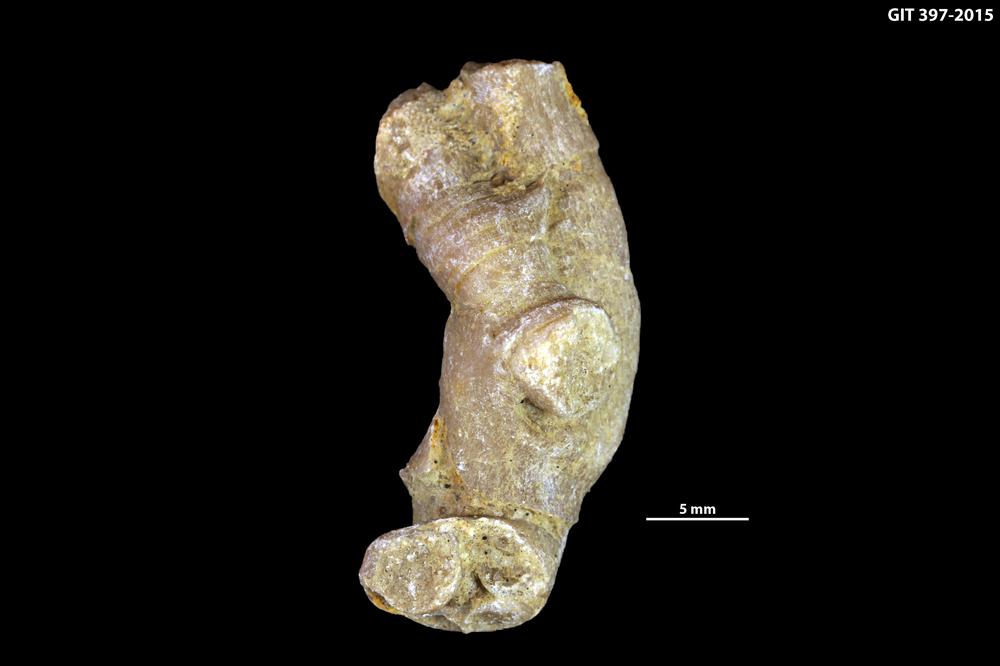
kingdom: Animalia
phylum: Cnidaria
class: Anthozoa
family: Cystiphyllidae
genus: Microplasma
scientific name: Microplasma
